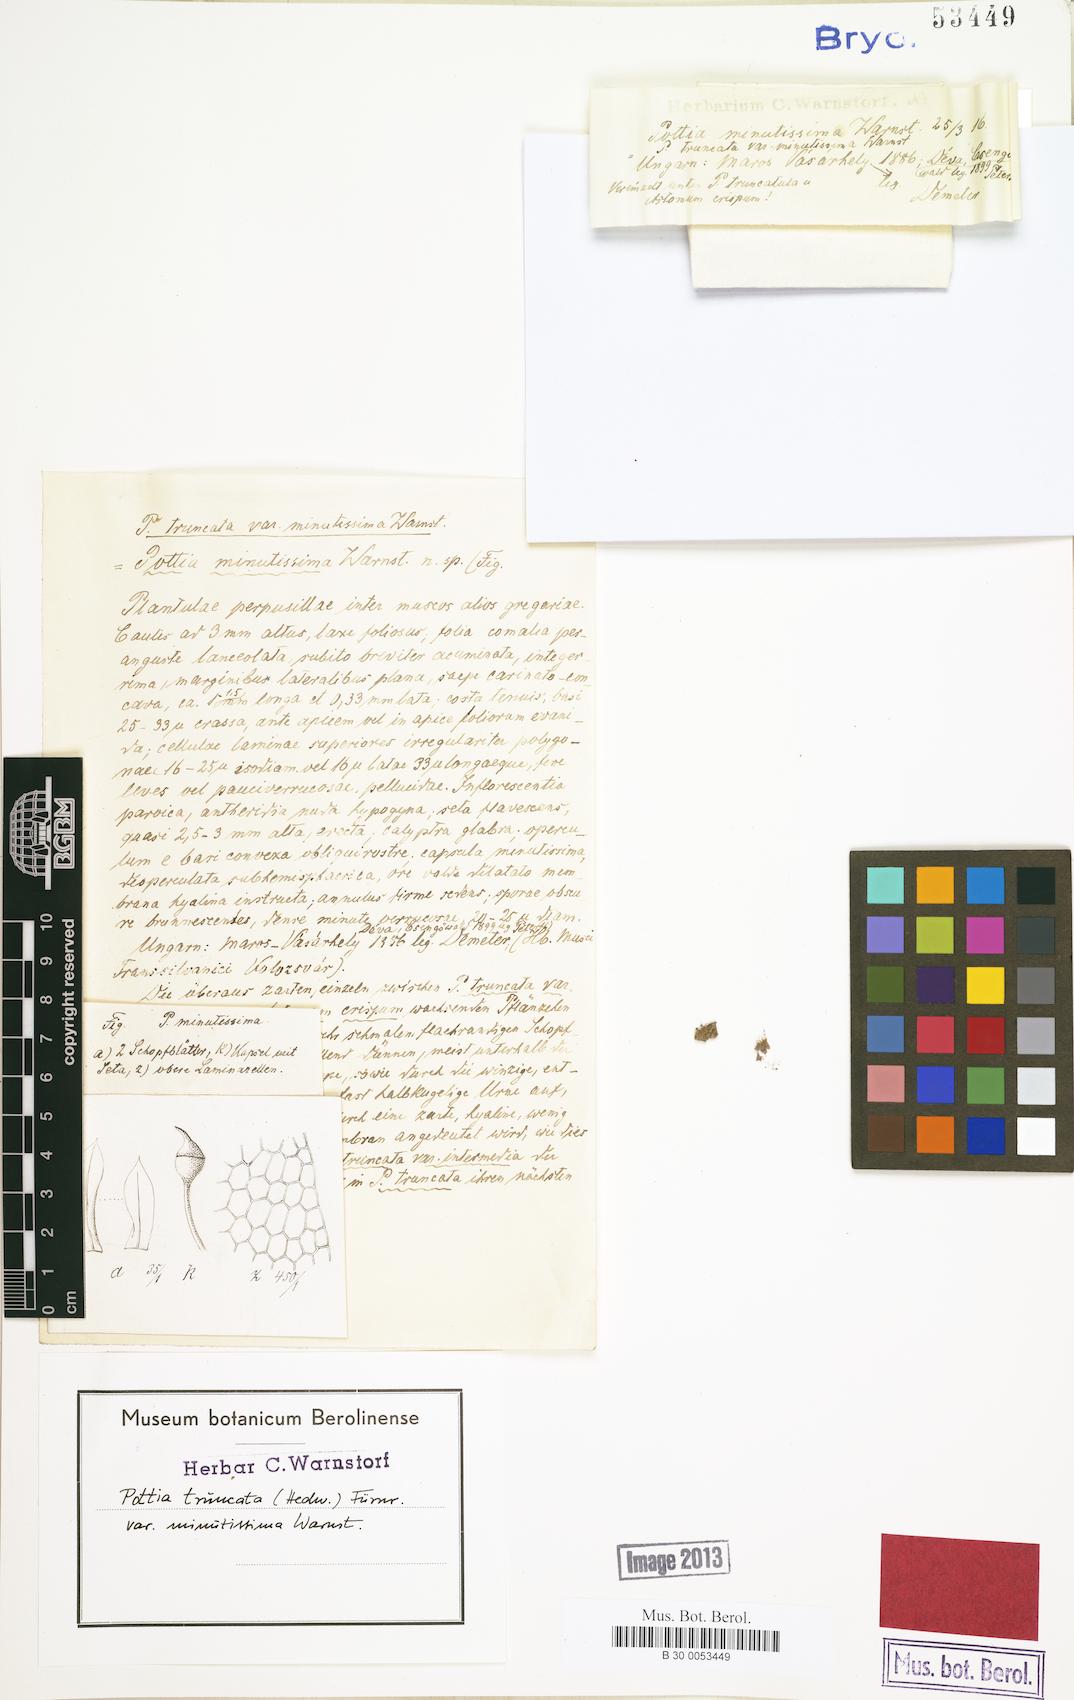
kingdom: Plantae
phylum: Bryophyta
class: Bryopsida
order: Pottiales
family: Pottiaceae
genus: Tortula
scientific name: Tortula truncata
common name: Truncated screw moss
